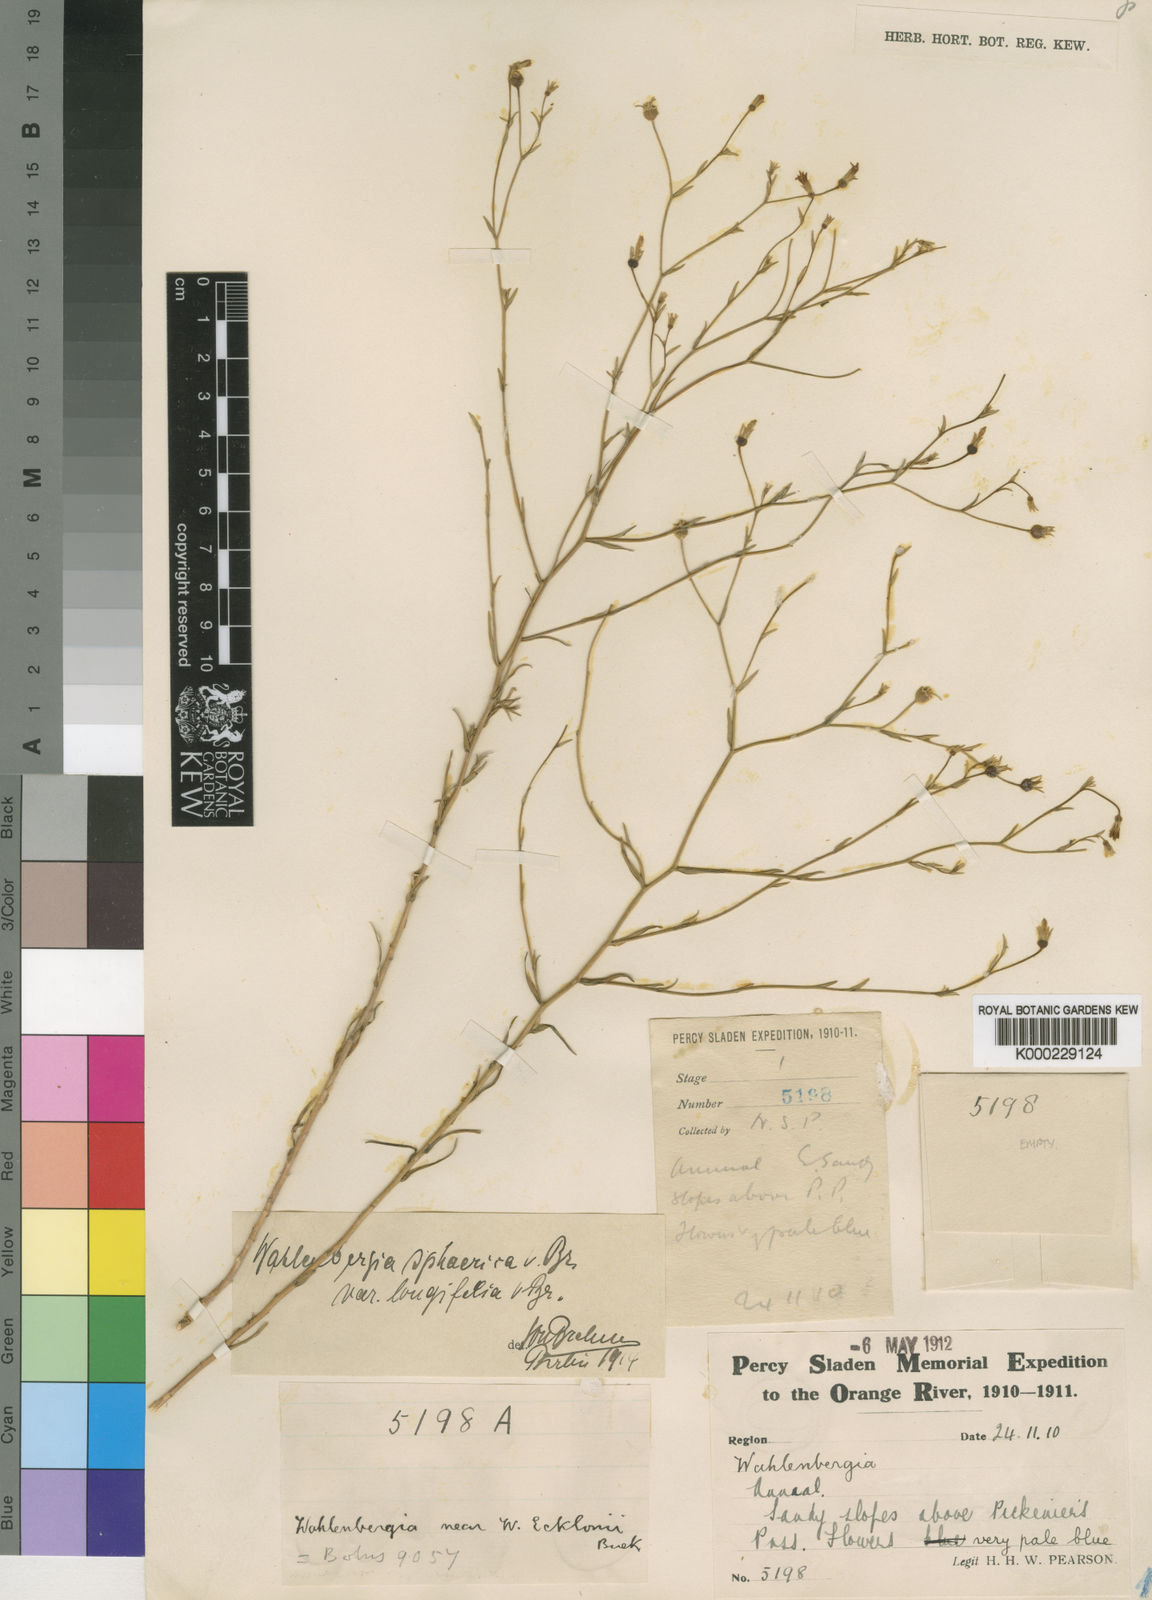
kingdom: Plantae
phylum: Tracheophyta
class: Magnoliopsida
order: Asterales
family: Campanulaceae
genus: Wahlenbergia
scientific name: Wahlenbergia sphaerica
